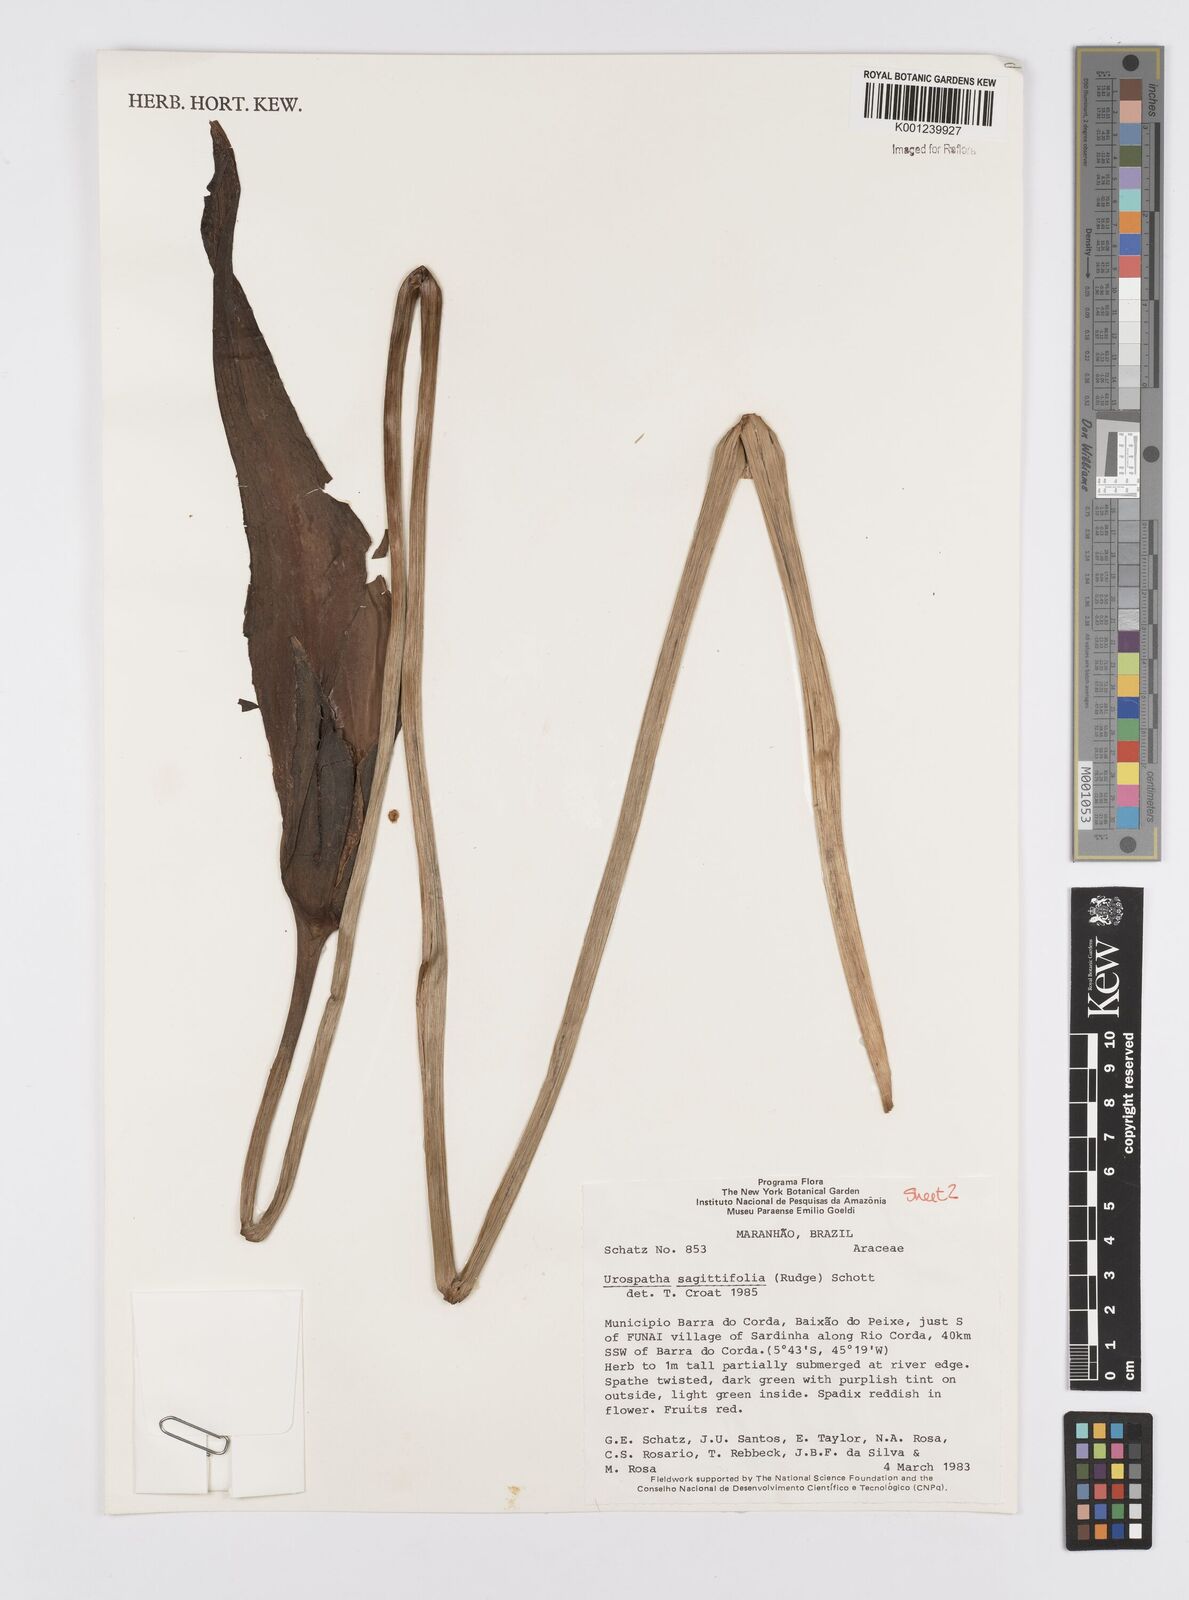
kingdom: Plantae
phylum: Tracheophyta
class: Liliopsida
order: Alismatales
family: Araceae
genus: Urospatha
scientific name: Urospatha sagittifolia
